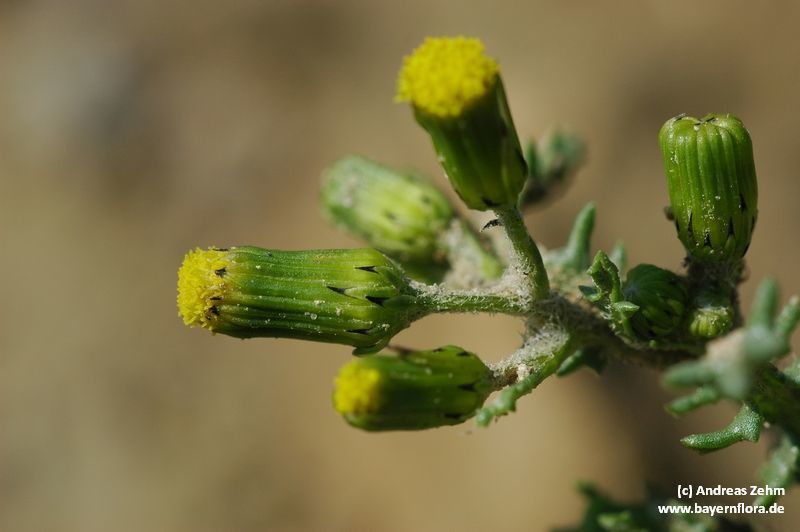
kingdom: Plantae
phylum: Tracheophyta
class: Magnoliopsida
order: Asterales
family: Asteraceae
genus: Senecio
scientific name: Senecio vulgaris
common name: Old-man-in-the-spring
